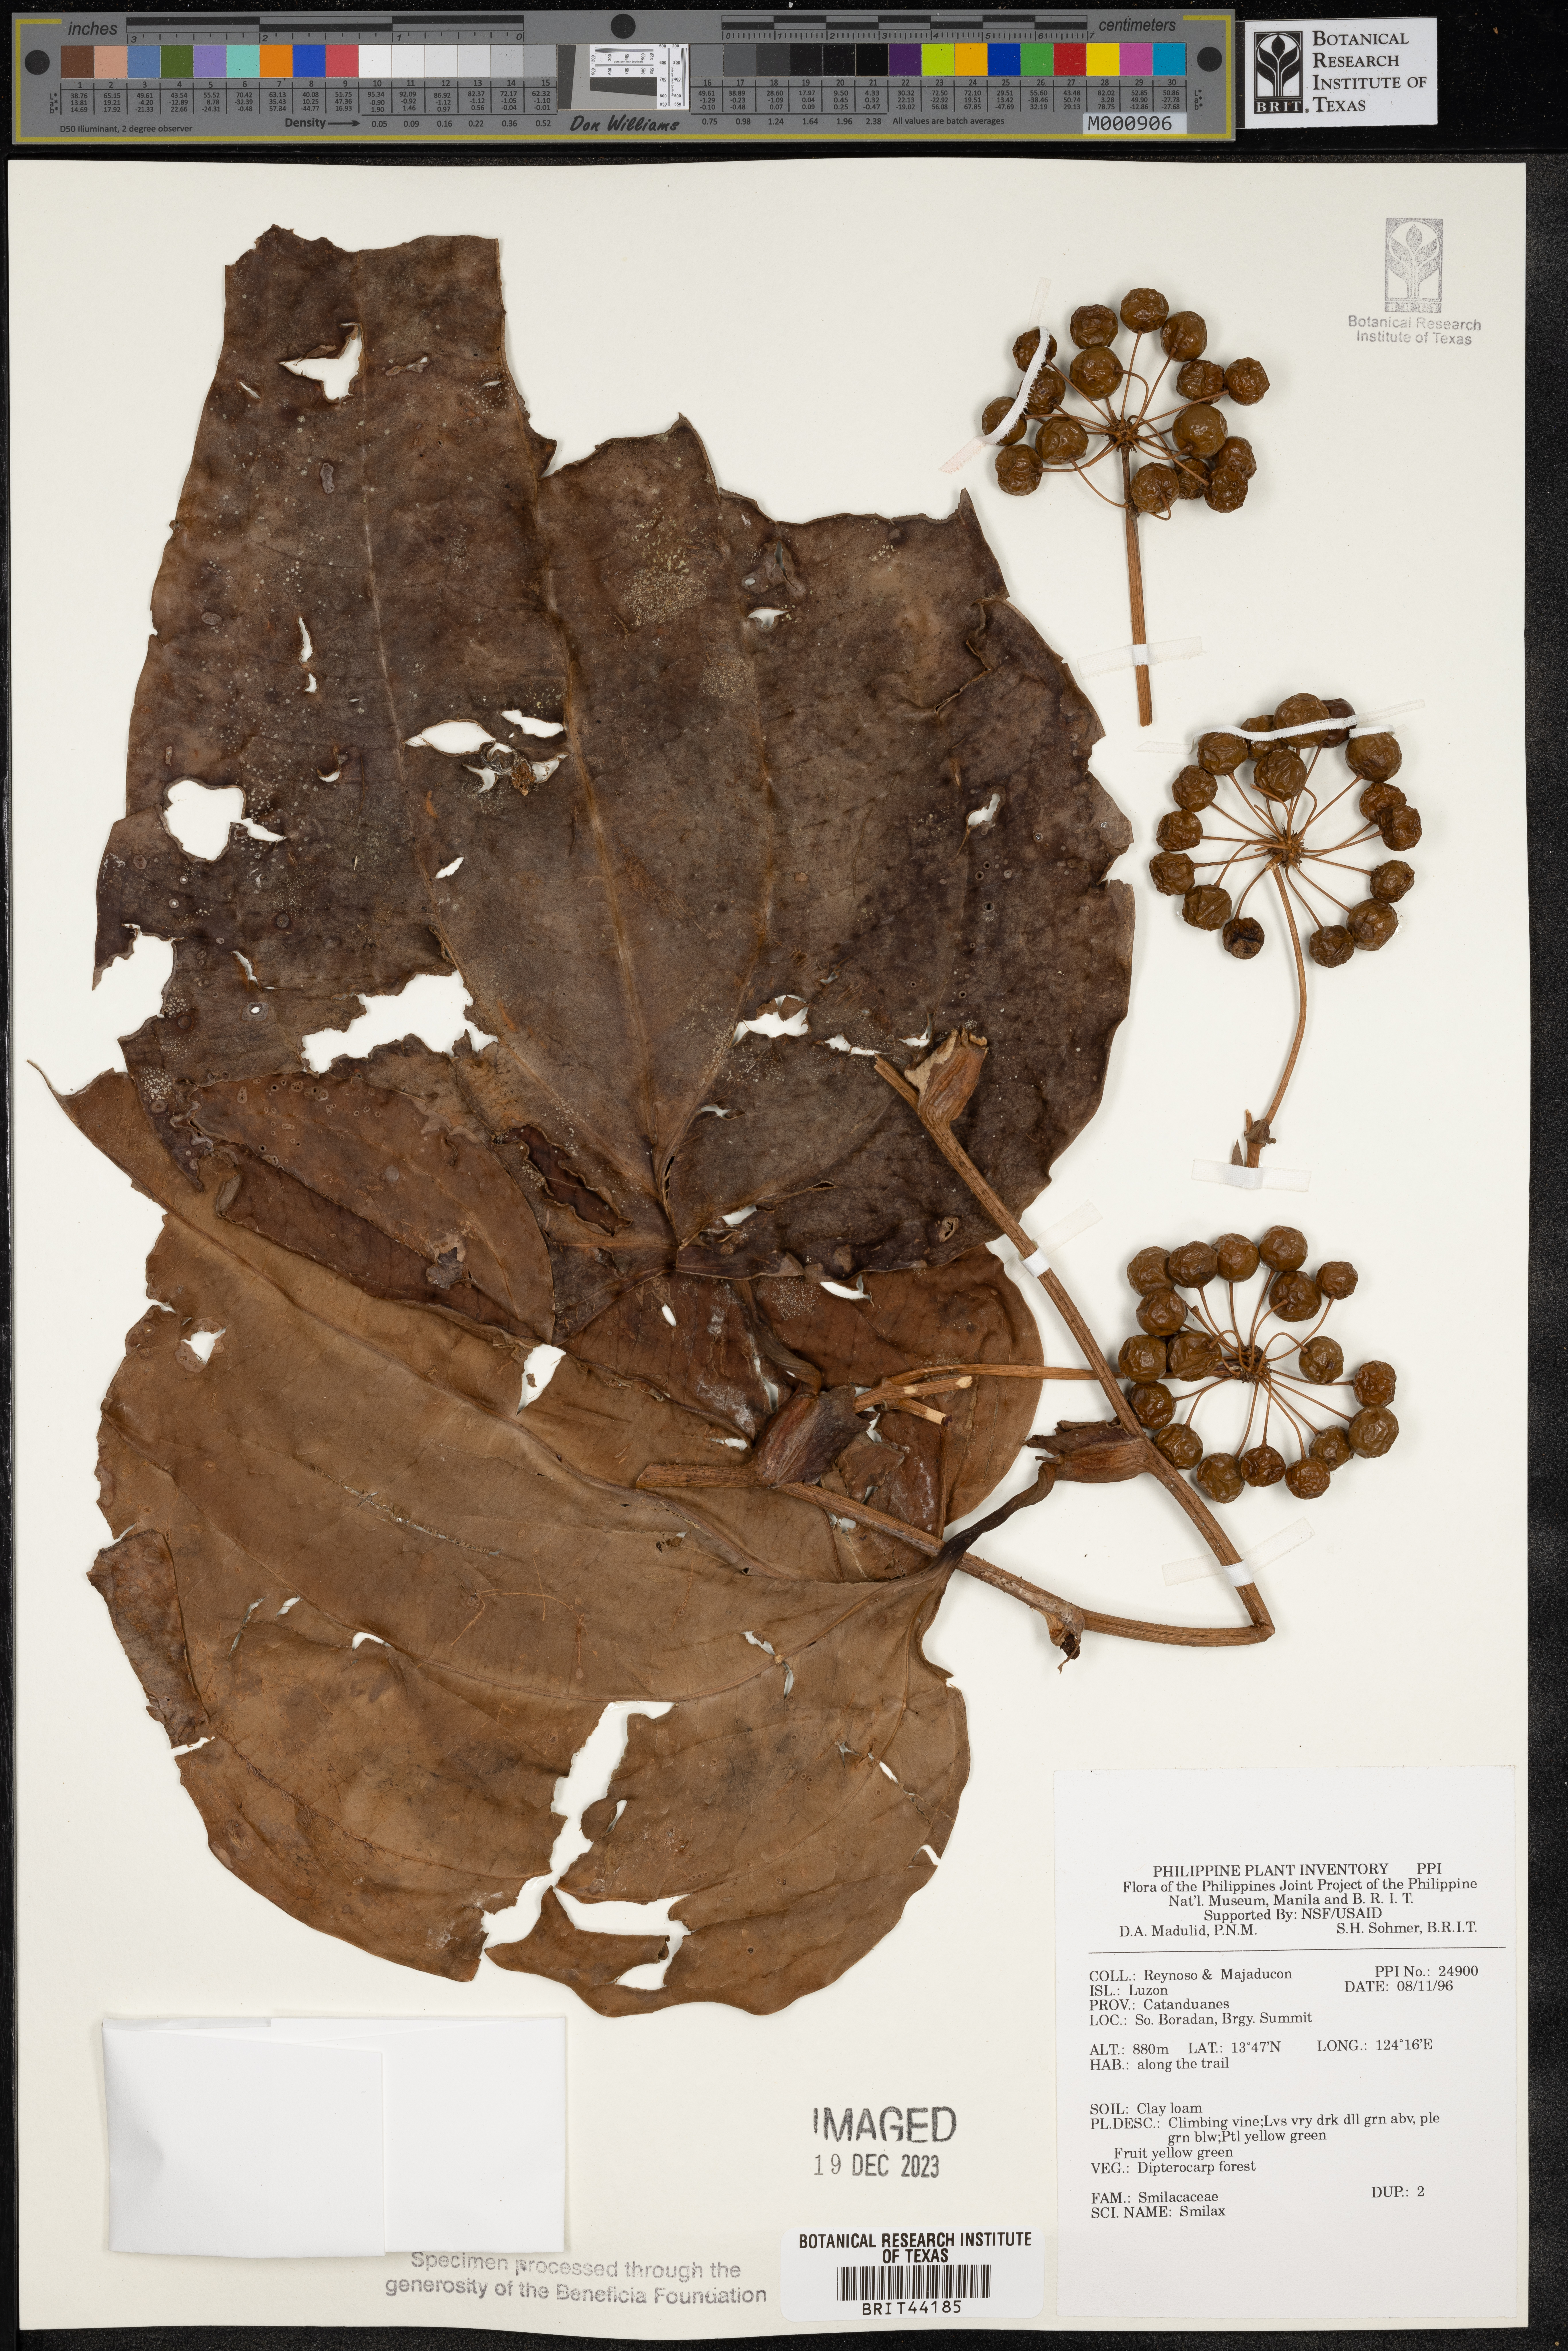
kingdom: Plantae
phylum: Tracheophyta
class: Liliopsida
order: Liliales
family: Smilacaceae
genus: Smilax
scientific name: Smilax
